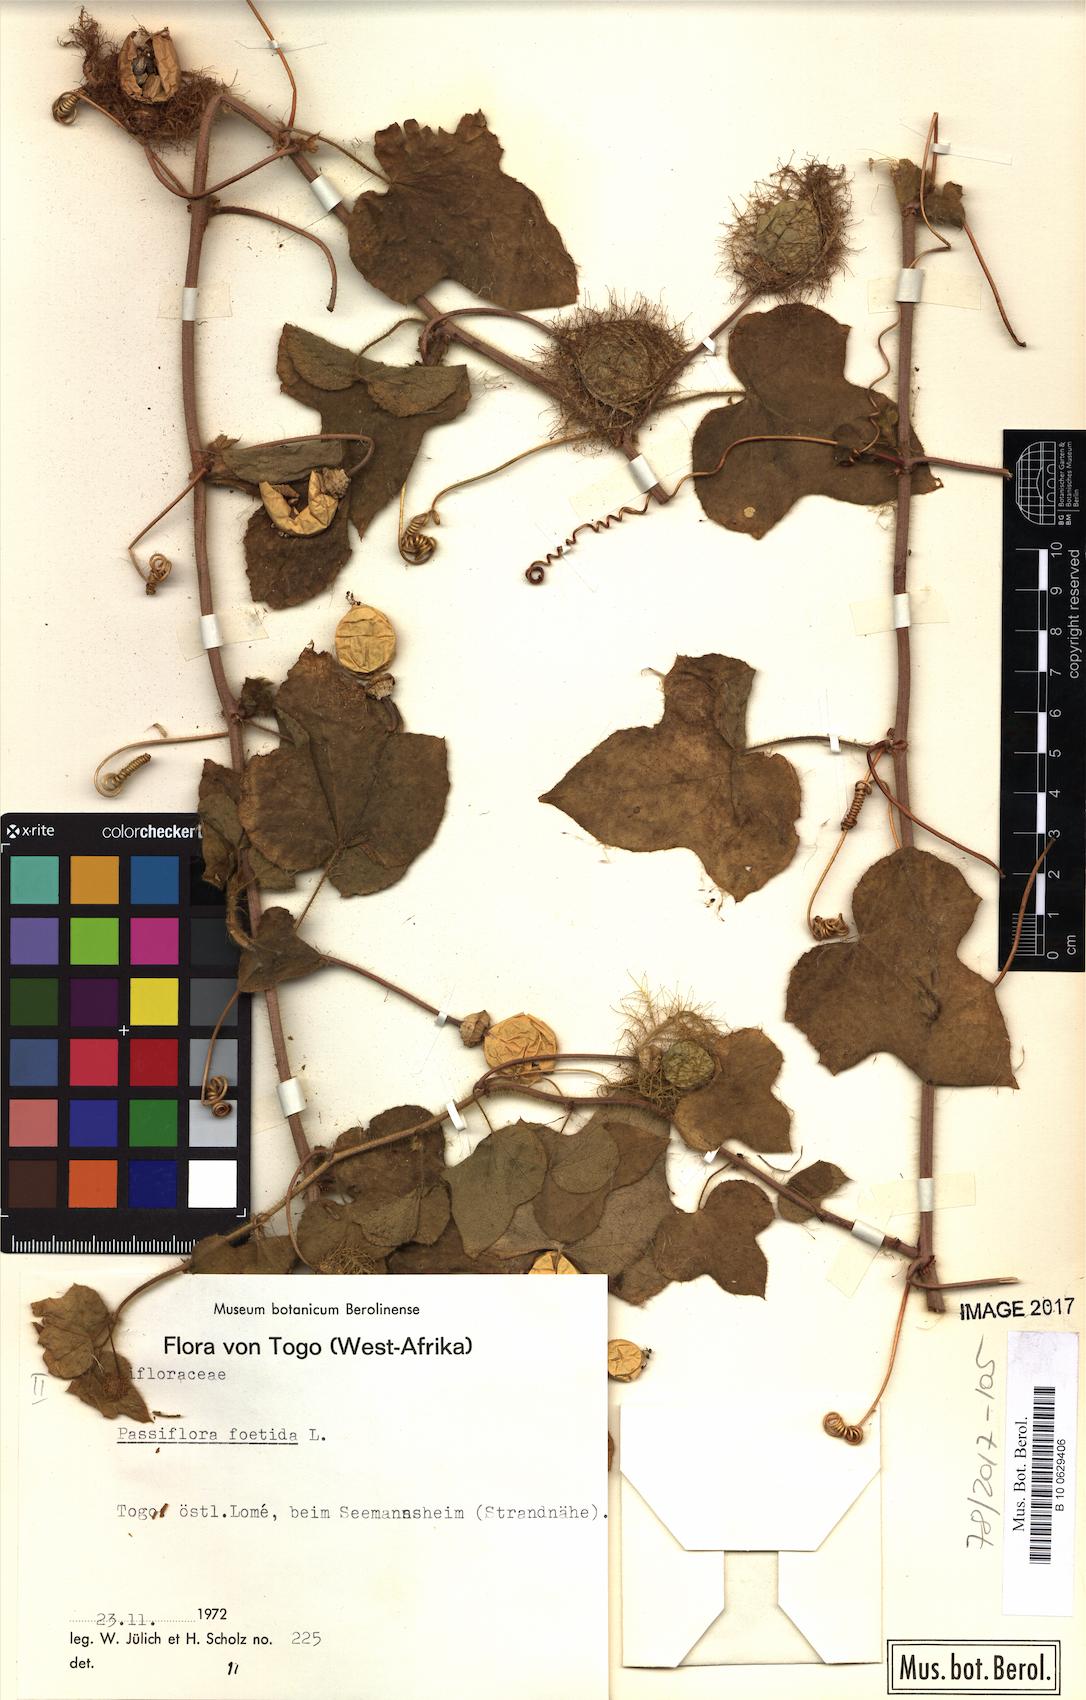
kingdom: Plantae
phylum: Tracheophyta
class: Magnoliopsida
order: Malpighiales
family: Passifloraceae
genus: Passiflora
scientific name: Passiflora foetida
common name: Fetid passionflower
